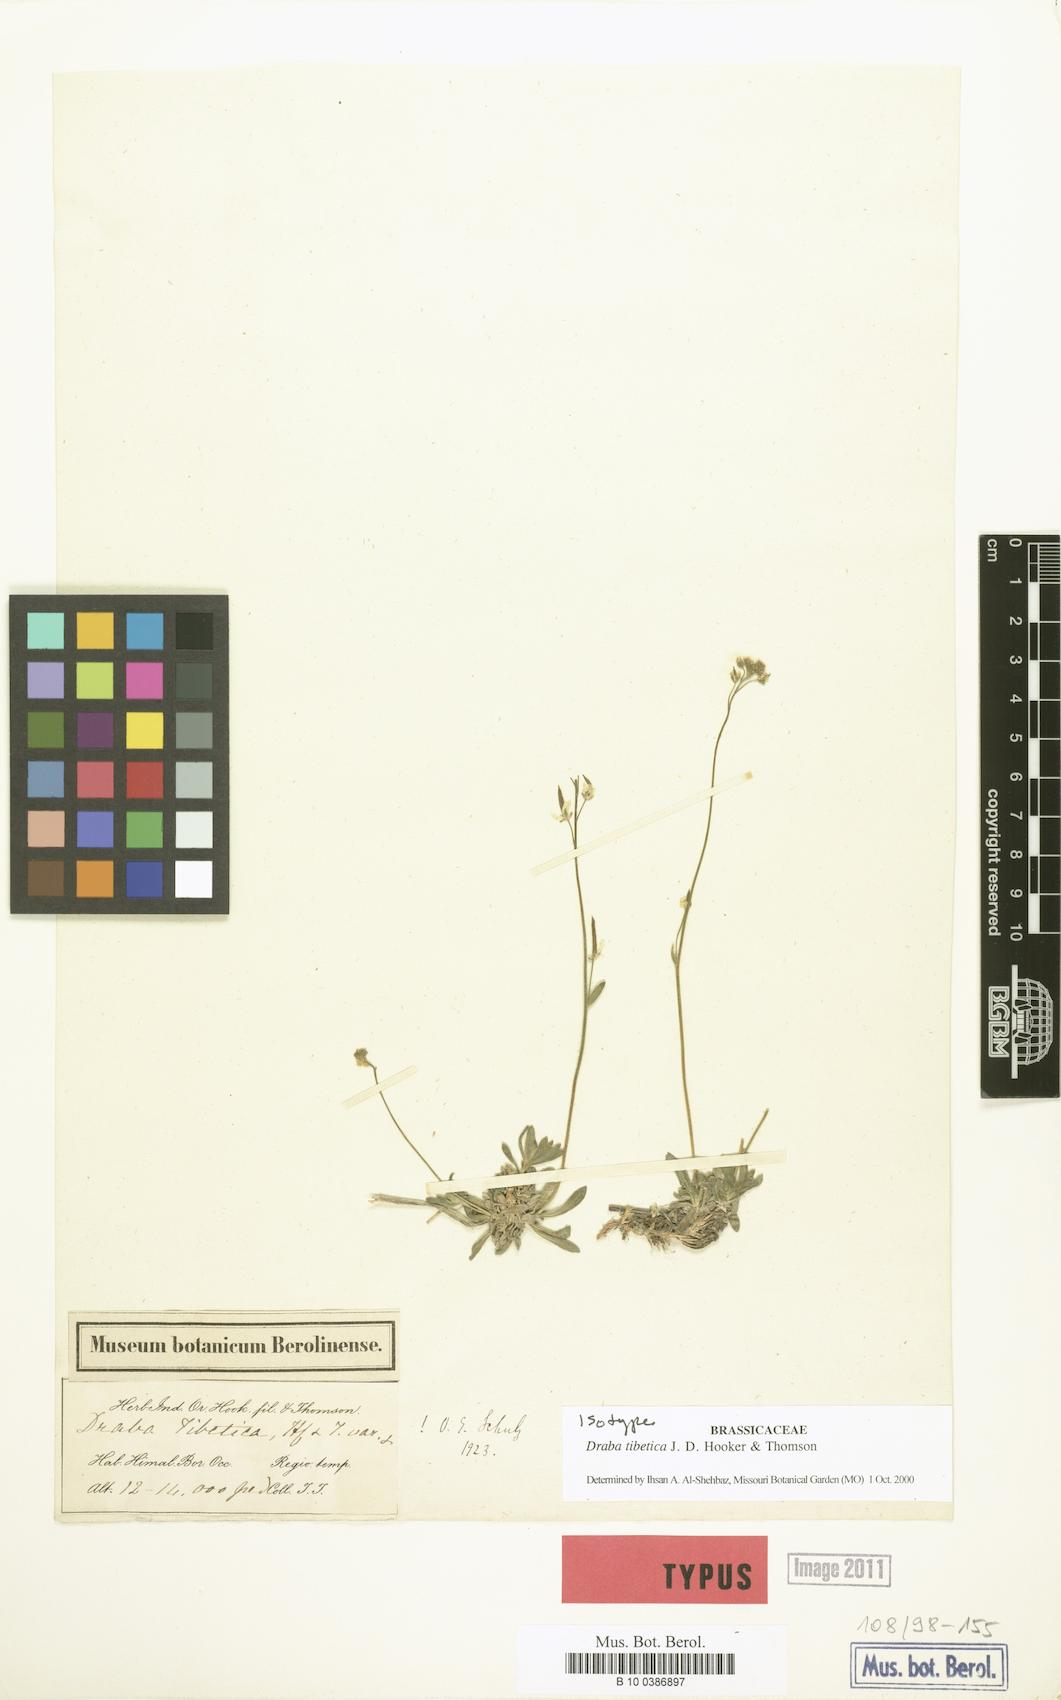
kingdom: Plantae
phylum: Tracheophyta
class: Magnoliopsida
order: Brassicales
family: Brassicaceae
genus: Draba
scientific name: Draba tibetica
